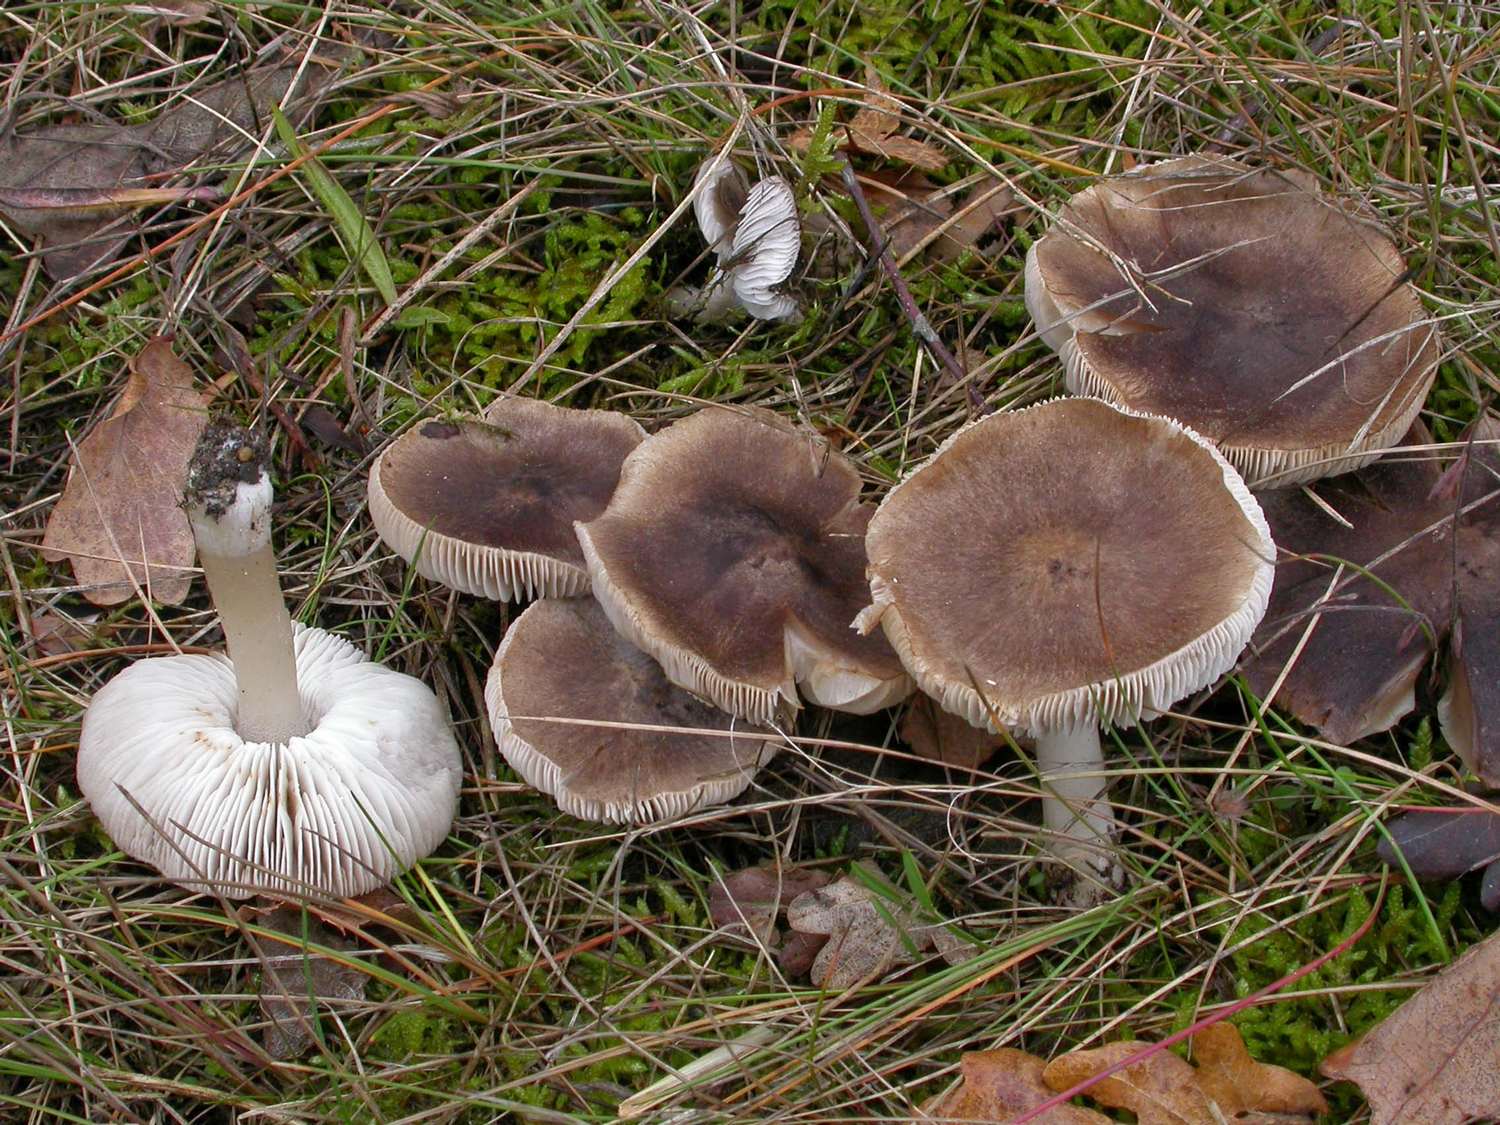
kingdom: Fungi
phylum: Basidiomycota
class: Agaricomycetes
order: Agaricales
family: Tricholomataceae
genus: Tricholoma
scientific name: Tricholoma terreum
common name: jordfarvet ridderhat
